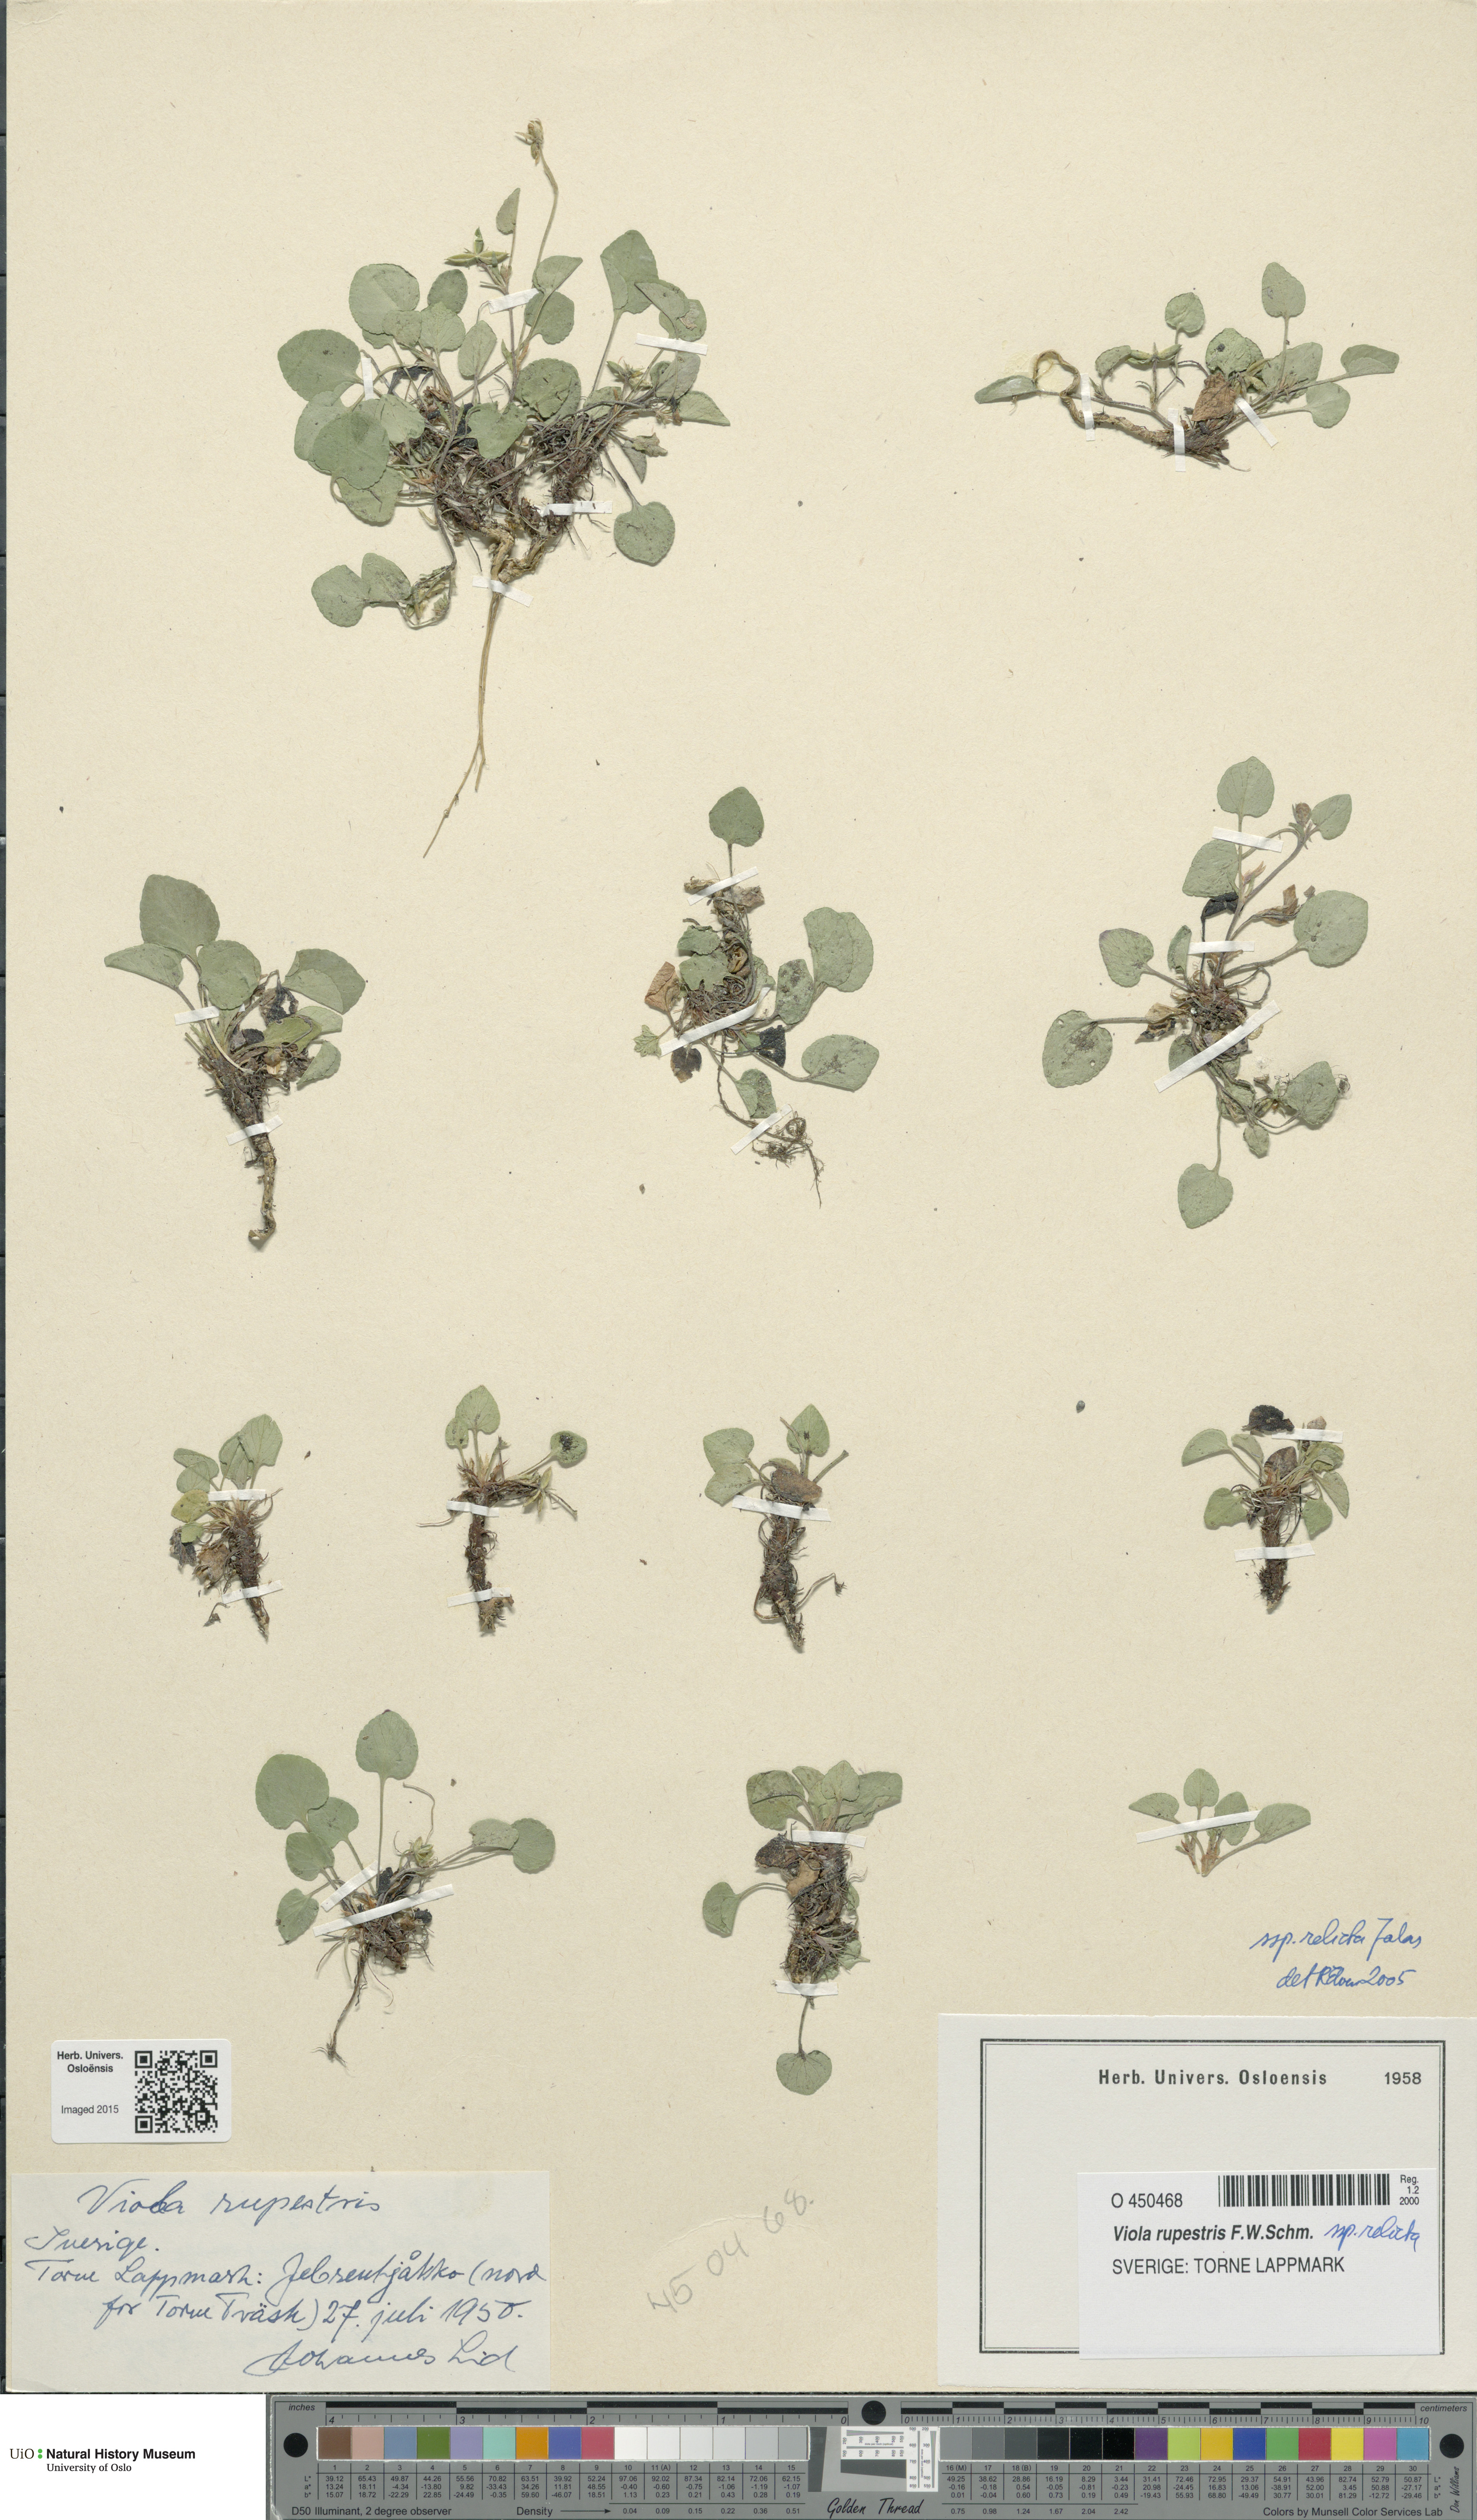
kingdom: Plantae
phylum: Tracheophyta
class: Magnoliopsida
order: Malpighiales
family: Violaceae
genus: Viola
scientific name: Viola rupestris
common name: Teesdale violet
